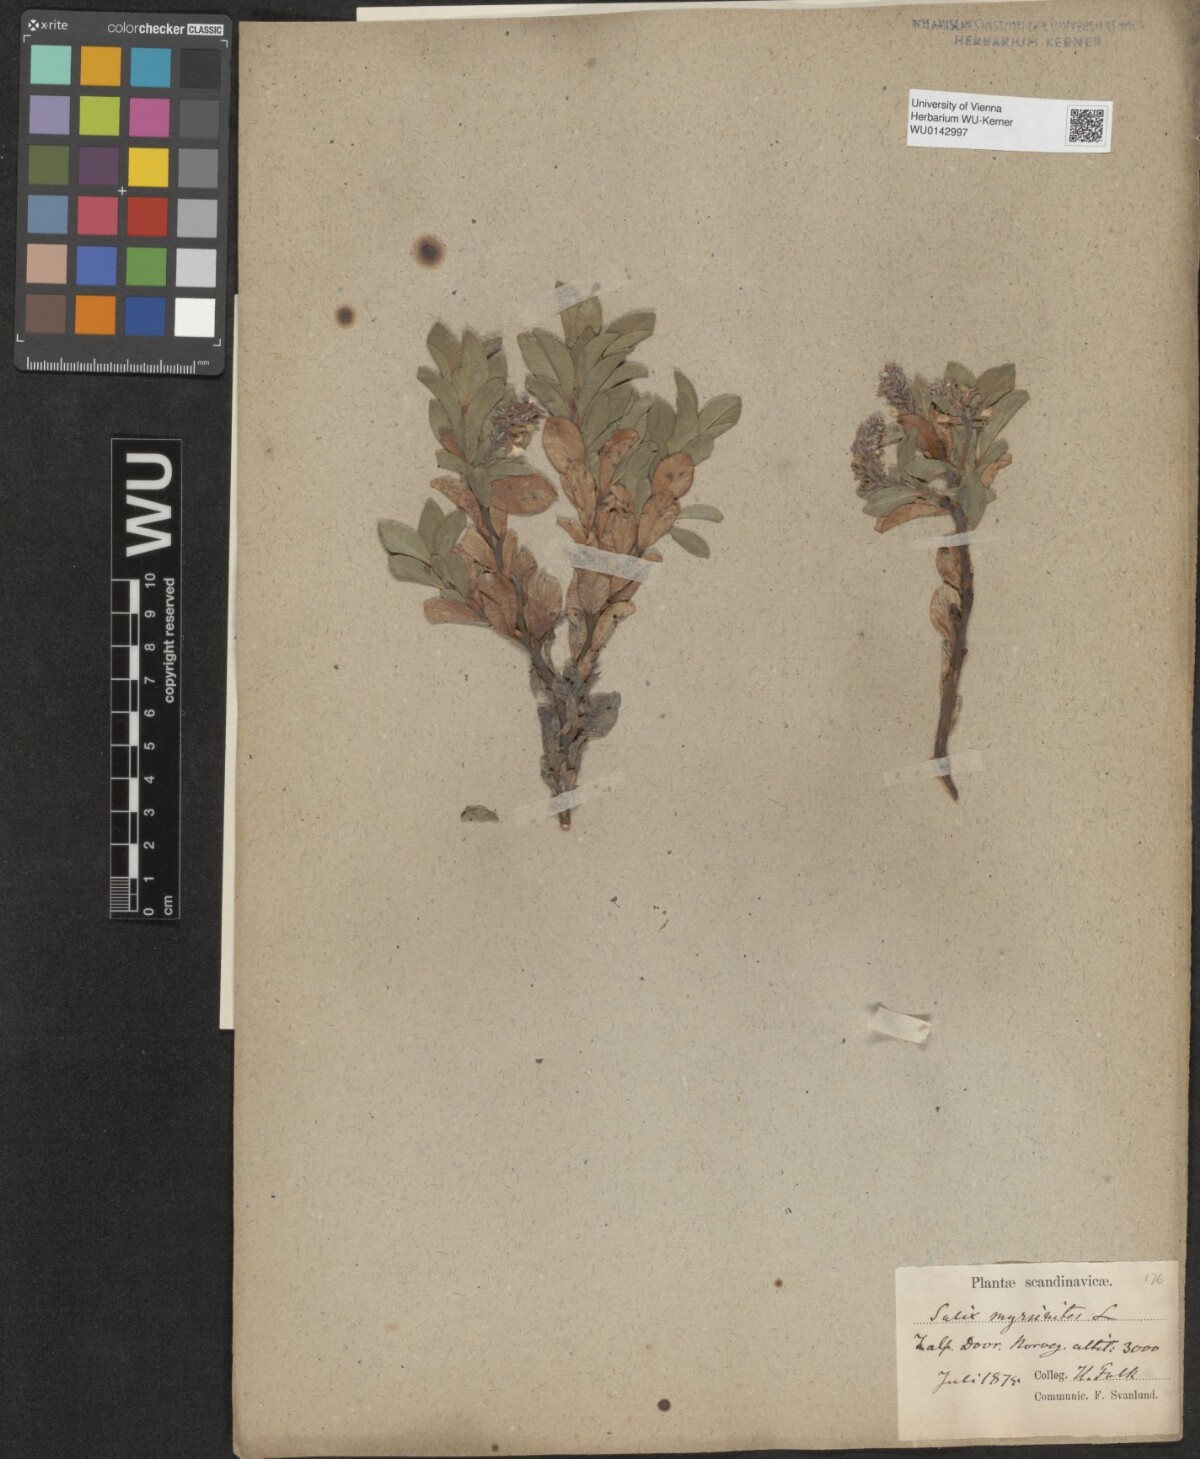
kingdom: Plantae
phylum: Tracheophyta
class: Magnoliopsida
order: Malpighiales
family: Salicaceae
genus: Salix
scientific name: Salix myrsinites
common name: Myrtle willow
